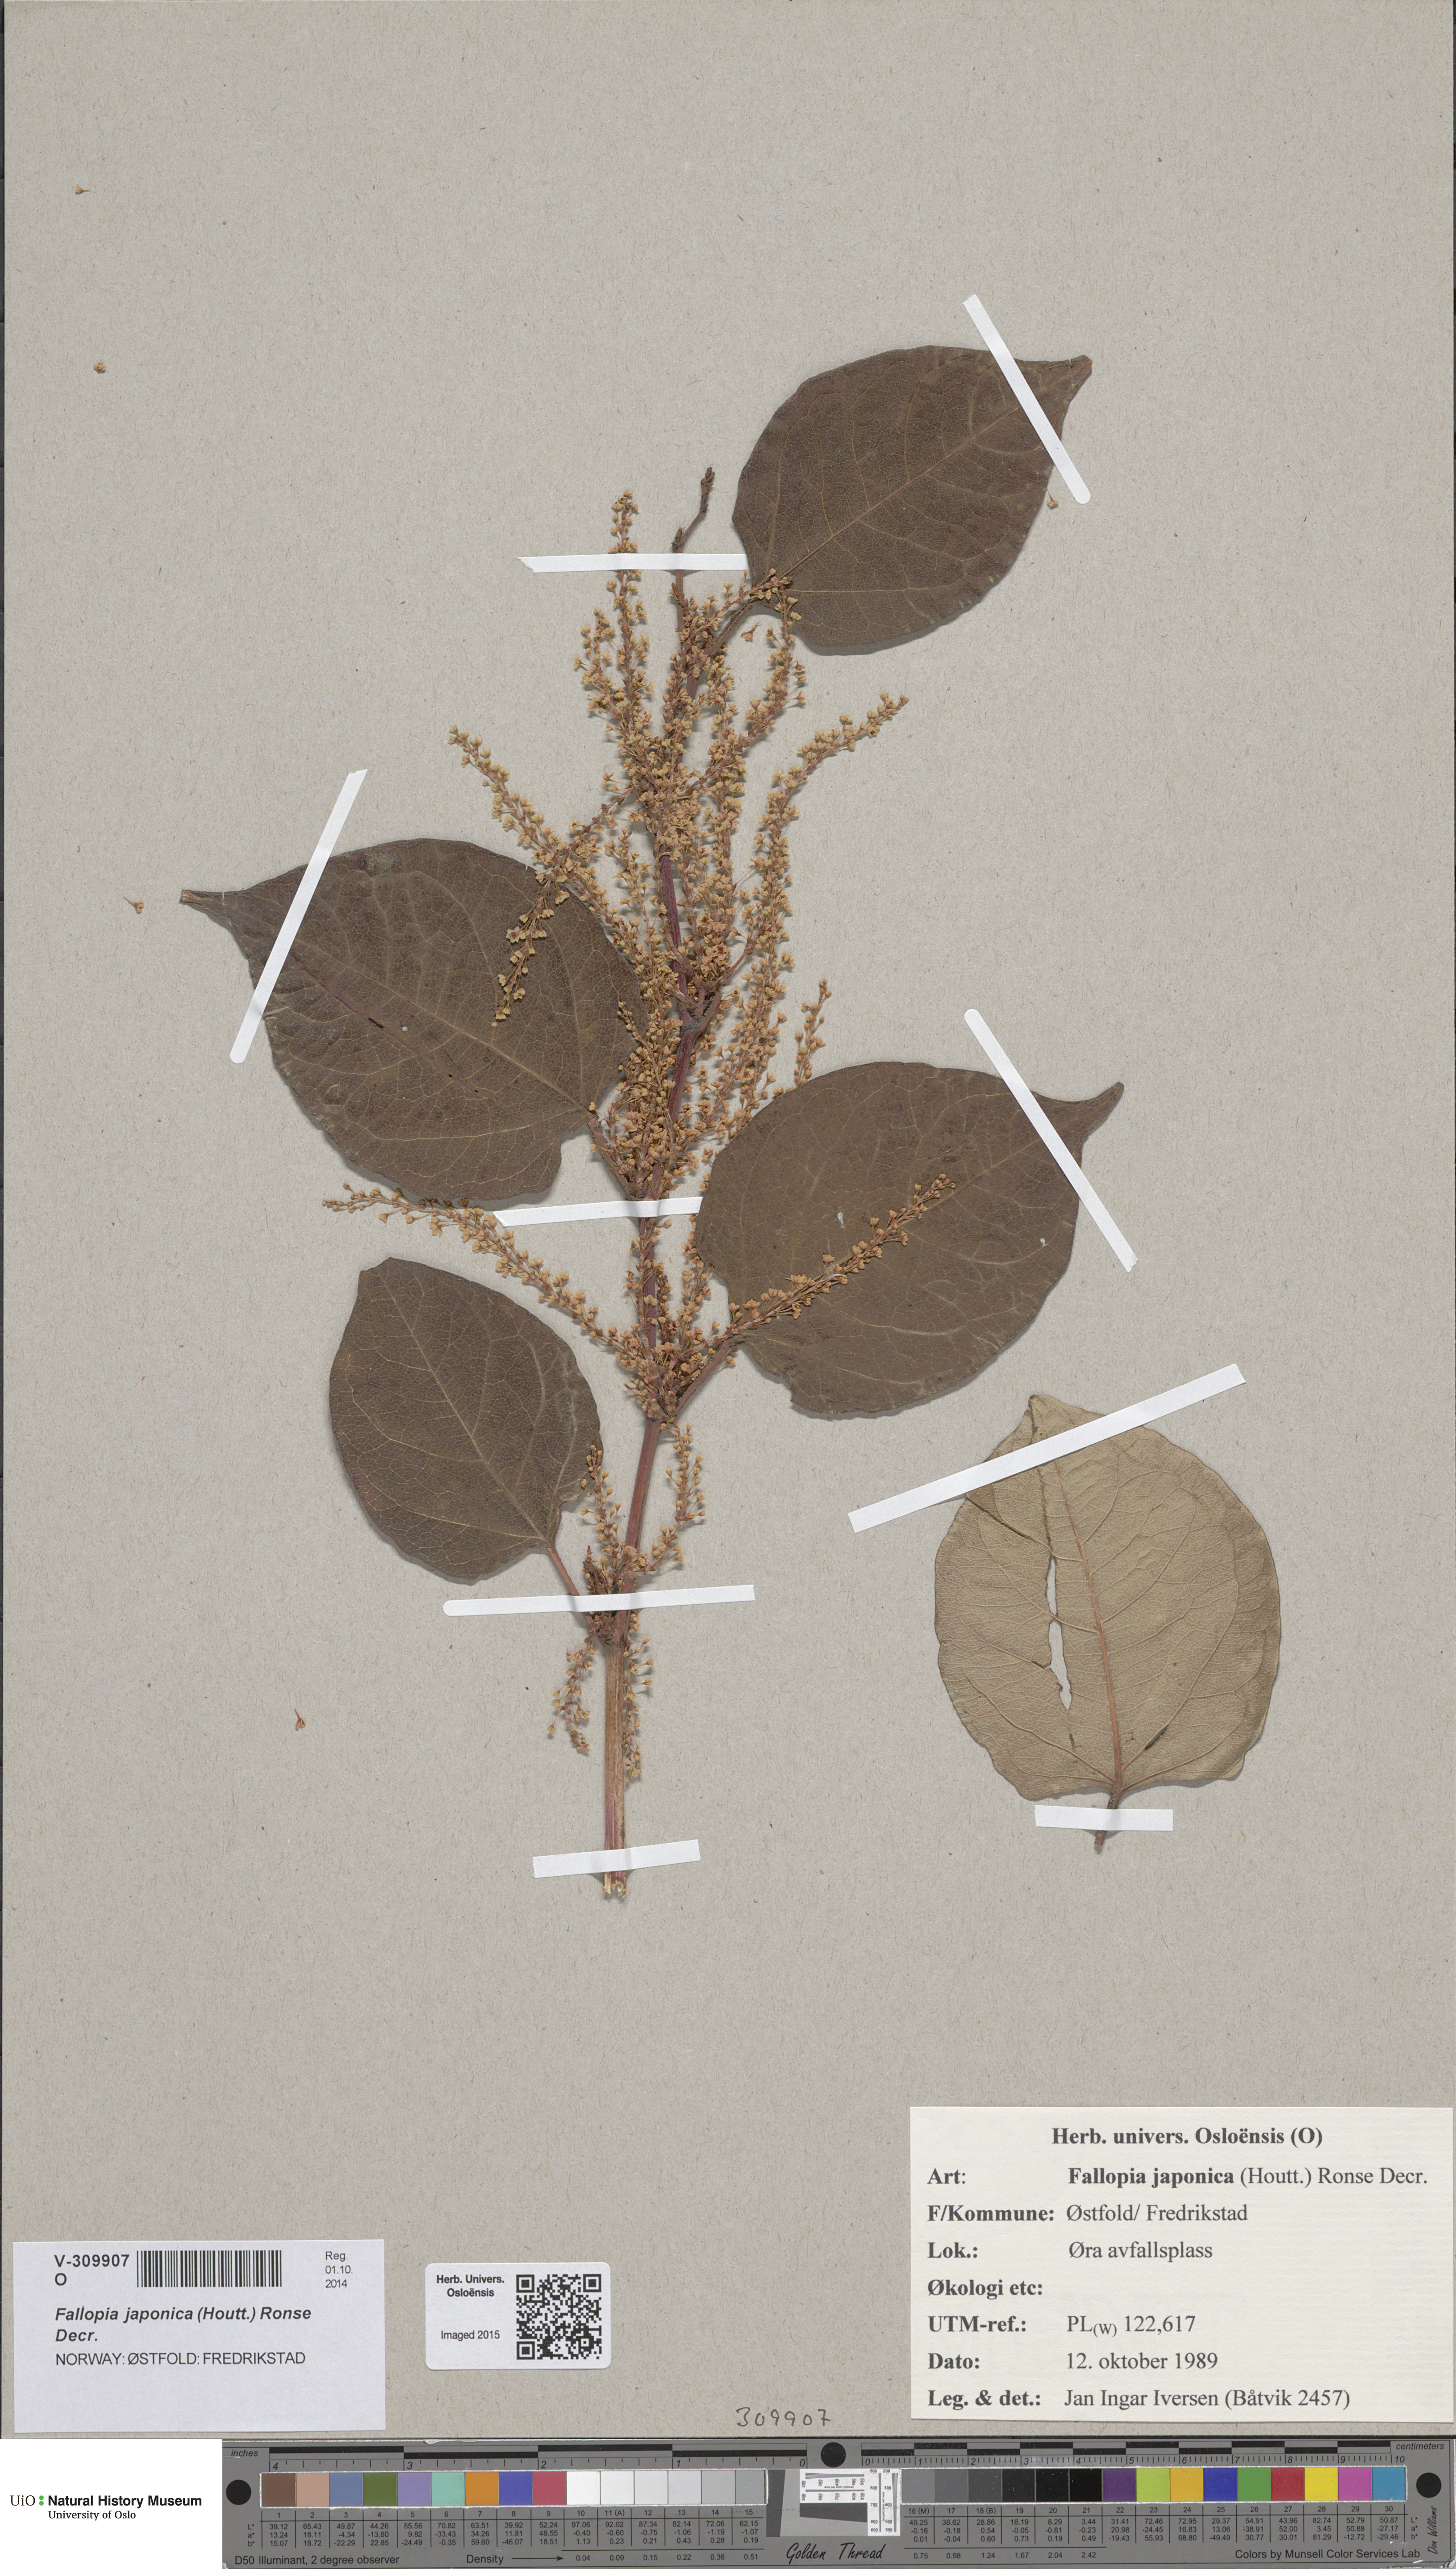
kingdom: Plantae
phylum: Tracheophyta
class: Magnoliopsida
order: Caryophyllales
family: Polygonaceae
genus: Reynoutria
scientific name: Reynoutria japonica
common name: Japanese knotweed
